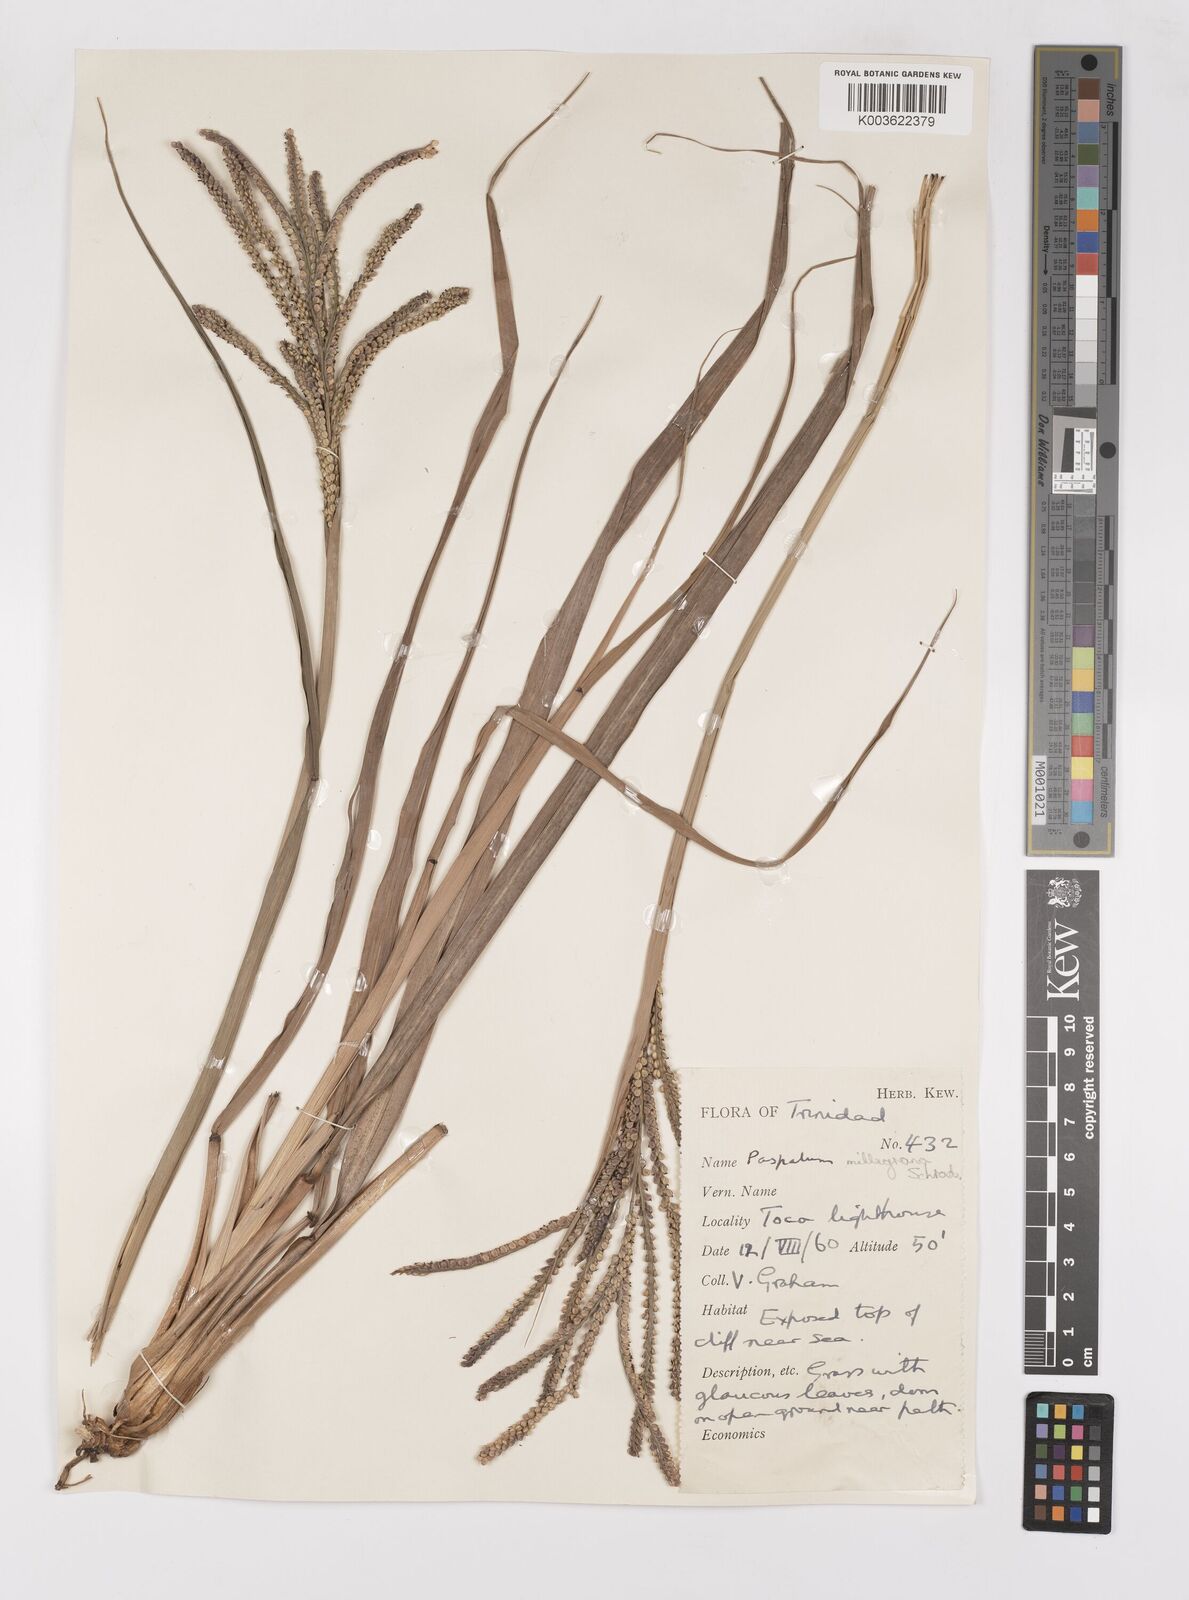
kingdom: Plantae
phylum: Tracheophyta
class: Liliopsida
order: Poales
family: Poaceae
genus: Paspalum
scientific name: Paspalum millegranum
